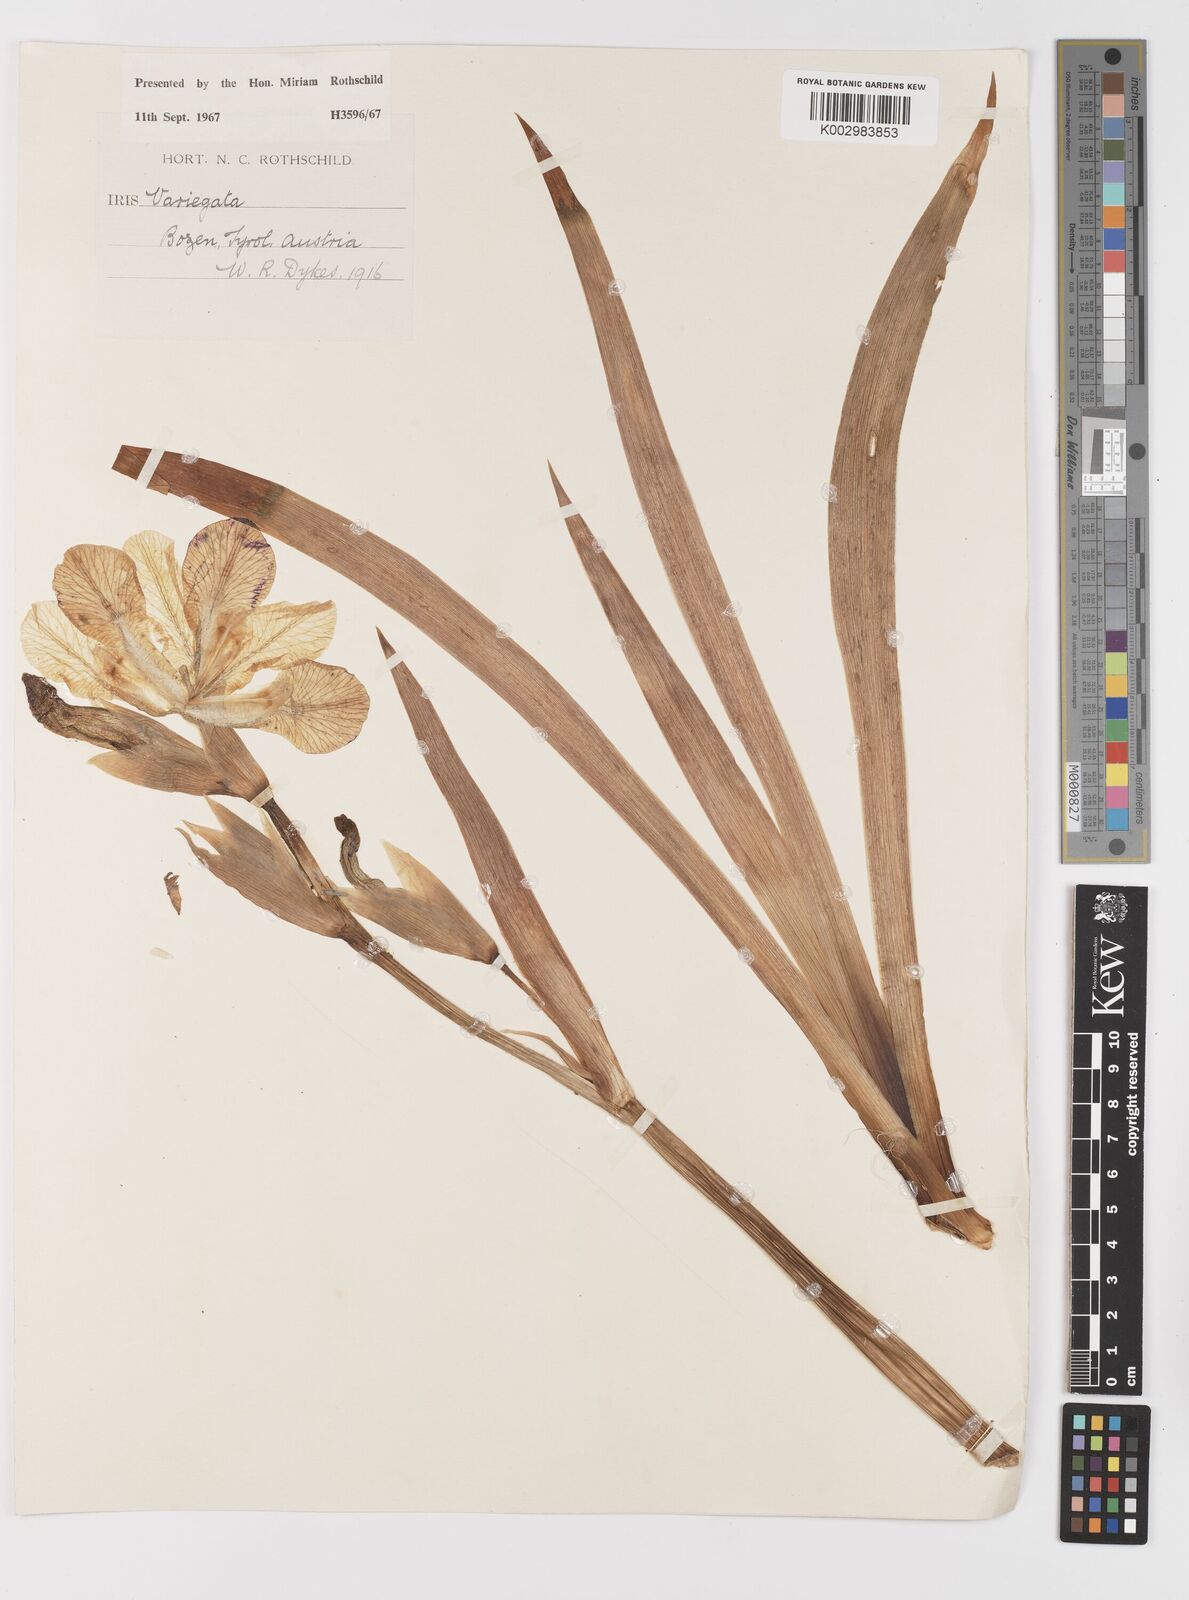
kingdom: Plantae
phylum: Tracheophyta
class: Liliopsida
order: Asparagales
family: Iridaceae
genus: Iris
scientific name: Iris variegata
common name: Hungarian iris
